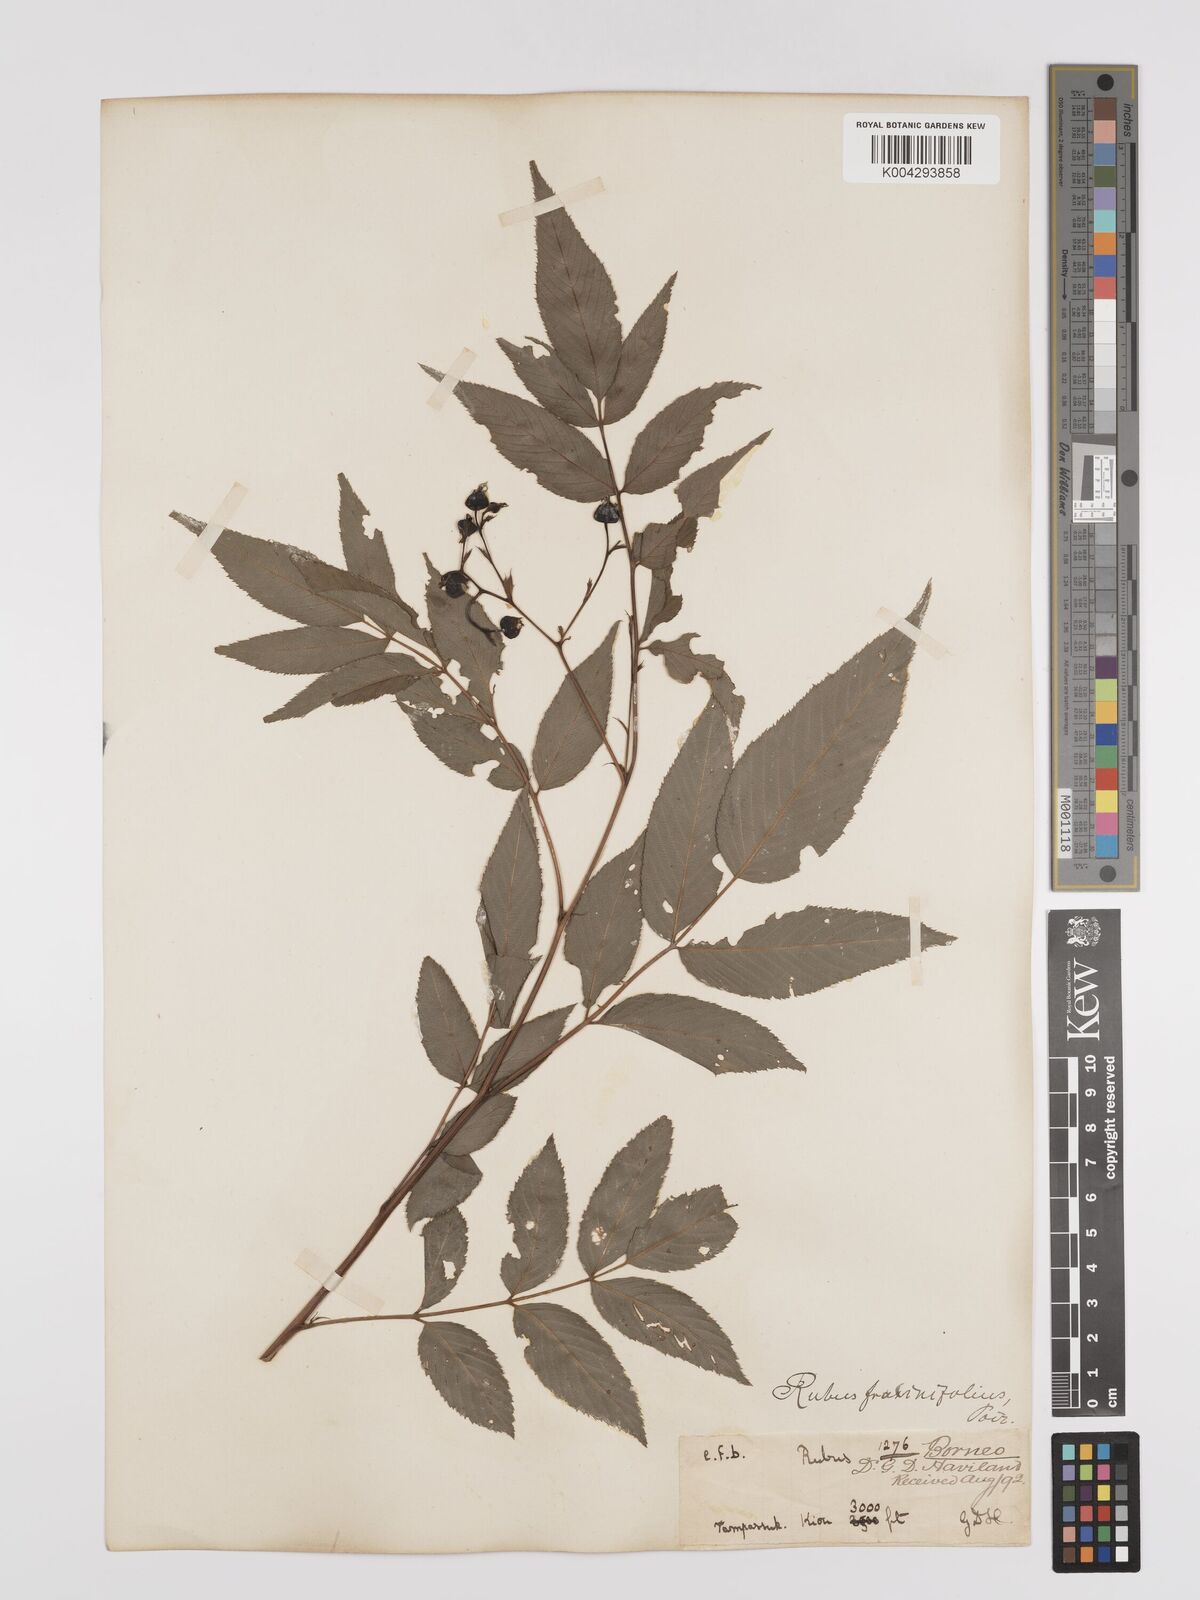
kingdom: Plantae
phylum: Tracheophyta
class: Magnoliopsida
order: Rosales
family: Rosaceae
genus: Rubus
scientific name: Rubus fraxinifolius
